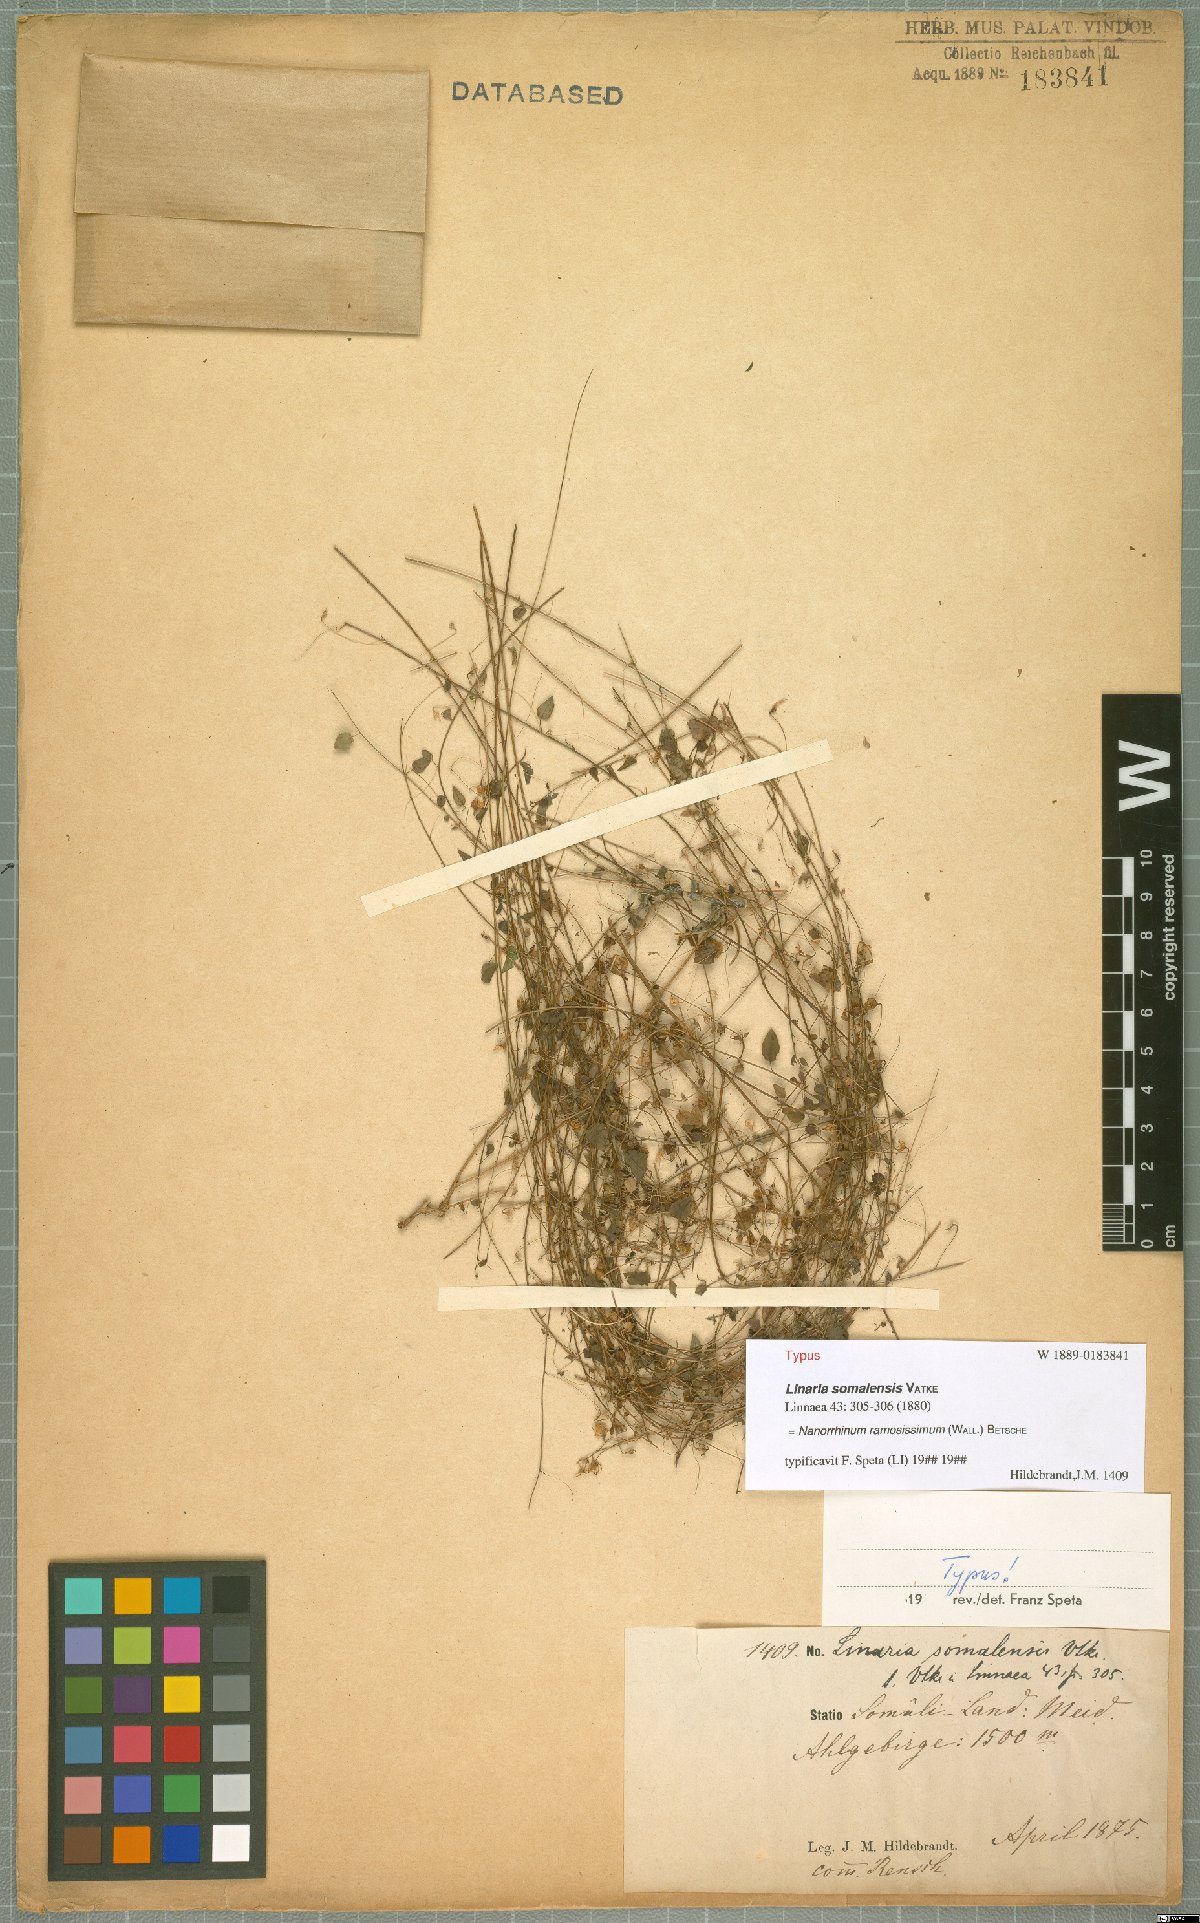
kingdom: Plantae
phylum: Tracheophyta
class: Magnoliopsida
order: Lamiales
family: Plantaginaceae
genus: Nanorrhinum
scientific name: Nanorrhinum ramosissimum
